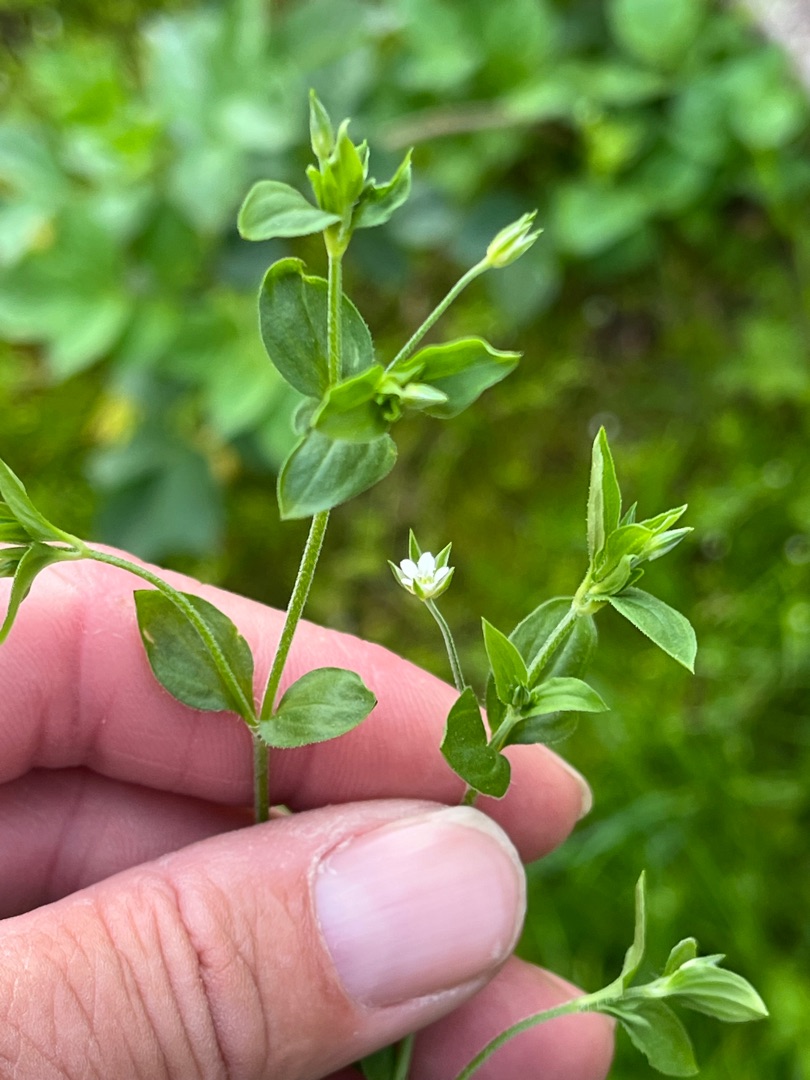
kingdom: Plantae
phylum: Tracheophyta
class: Magnoliopsida
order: Caryophyllales
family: Caryophyllaceae
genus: Moehringia
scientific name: Moehringia trinervia
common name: Skovarve
